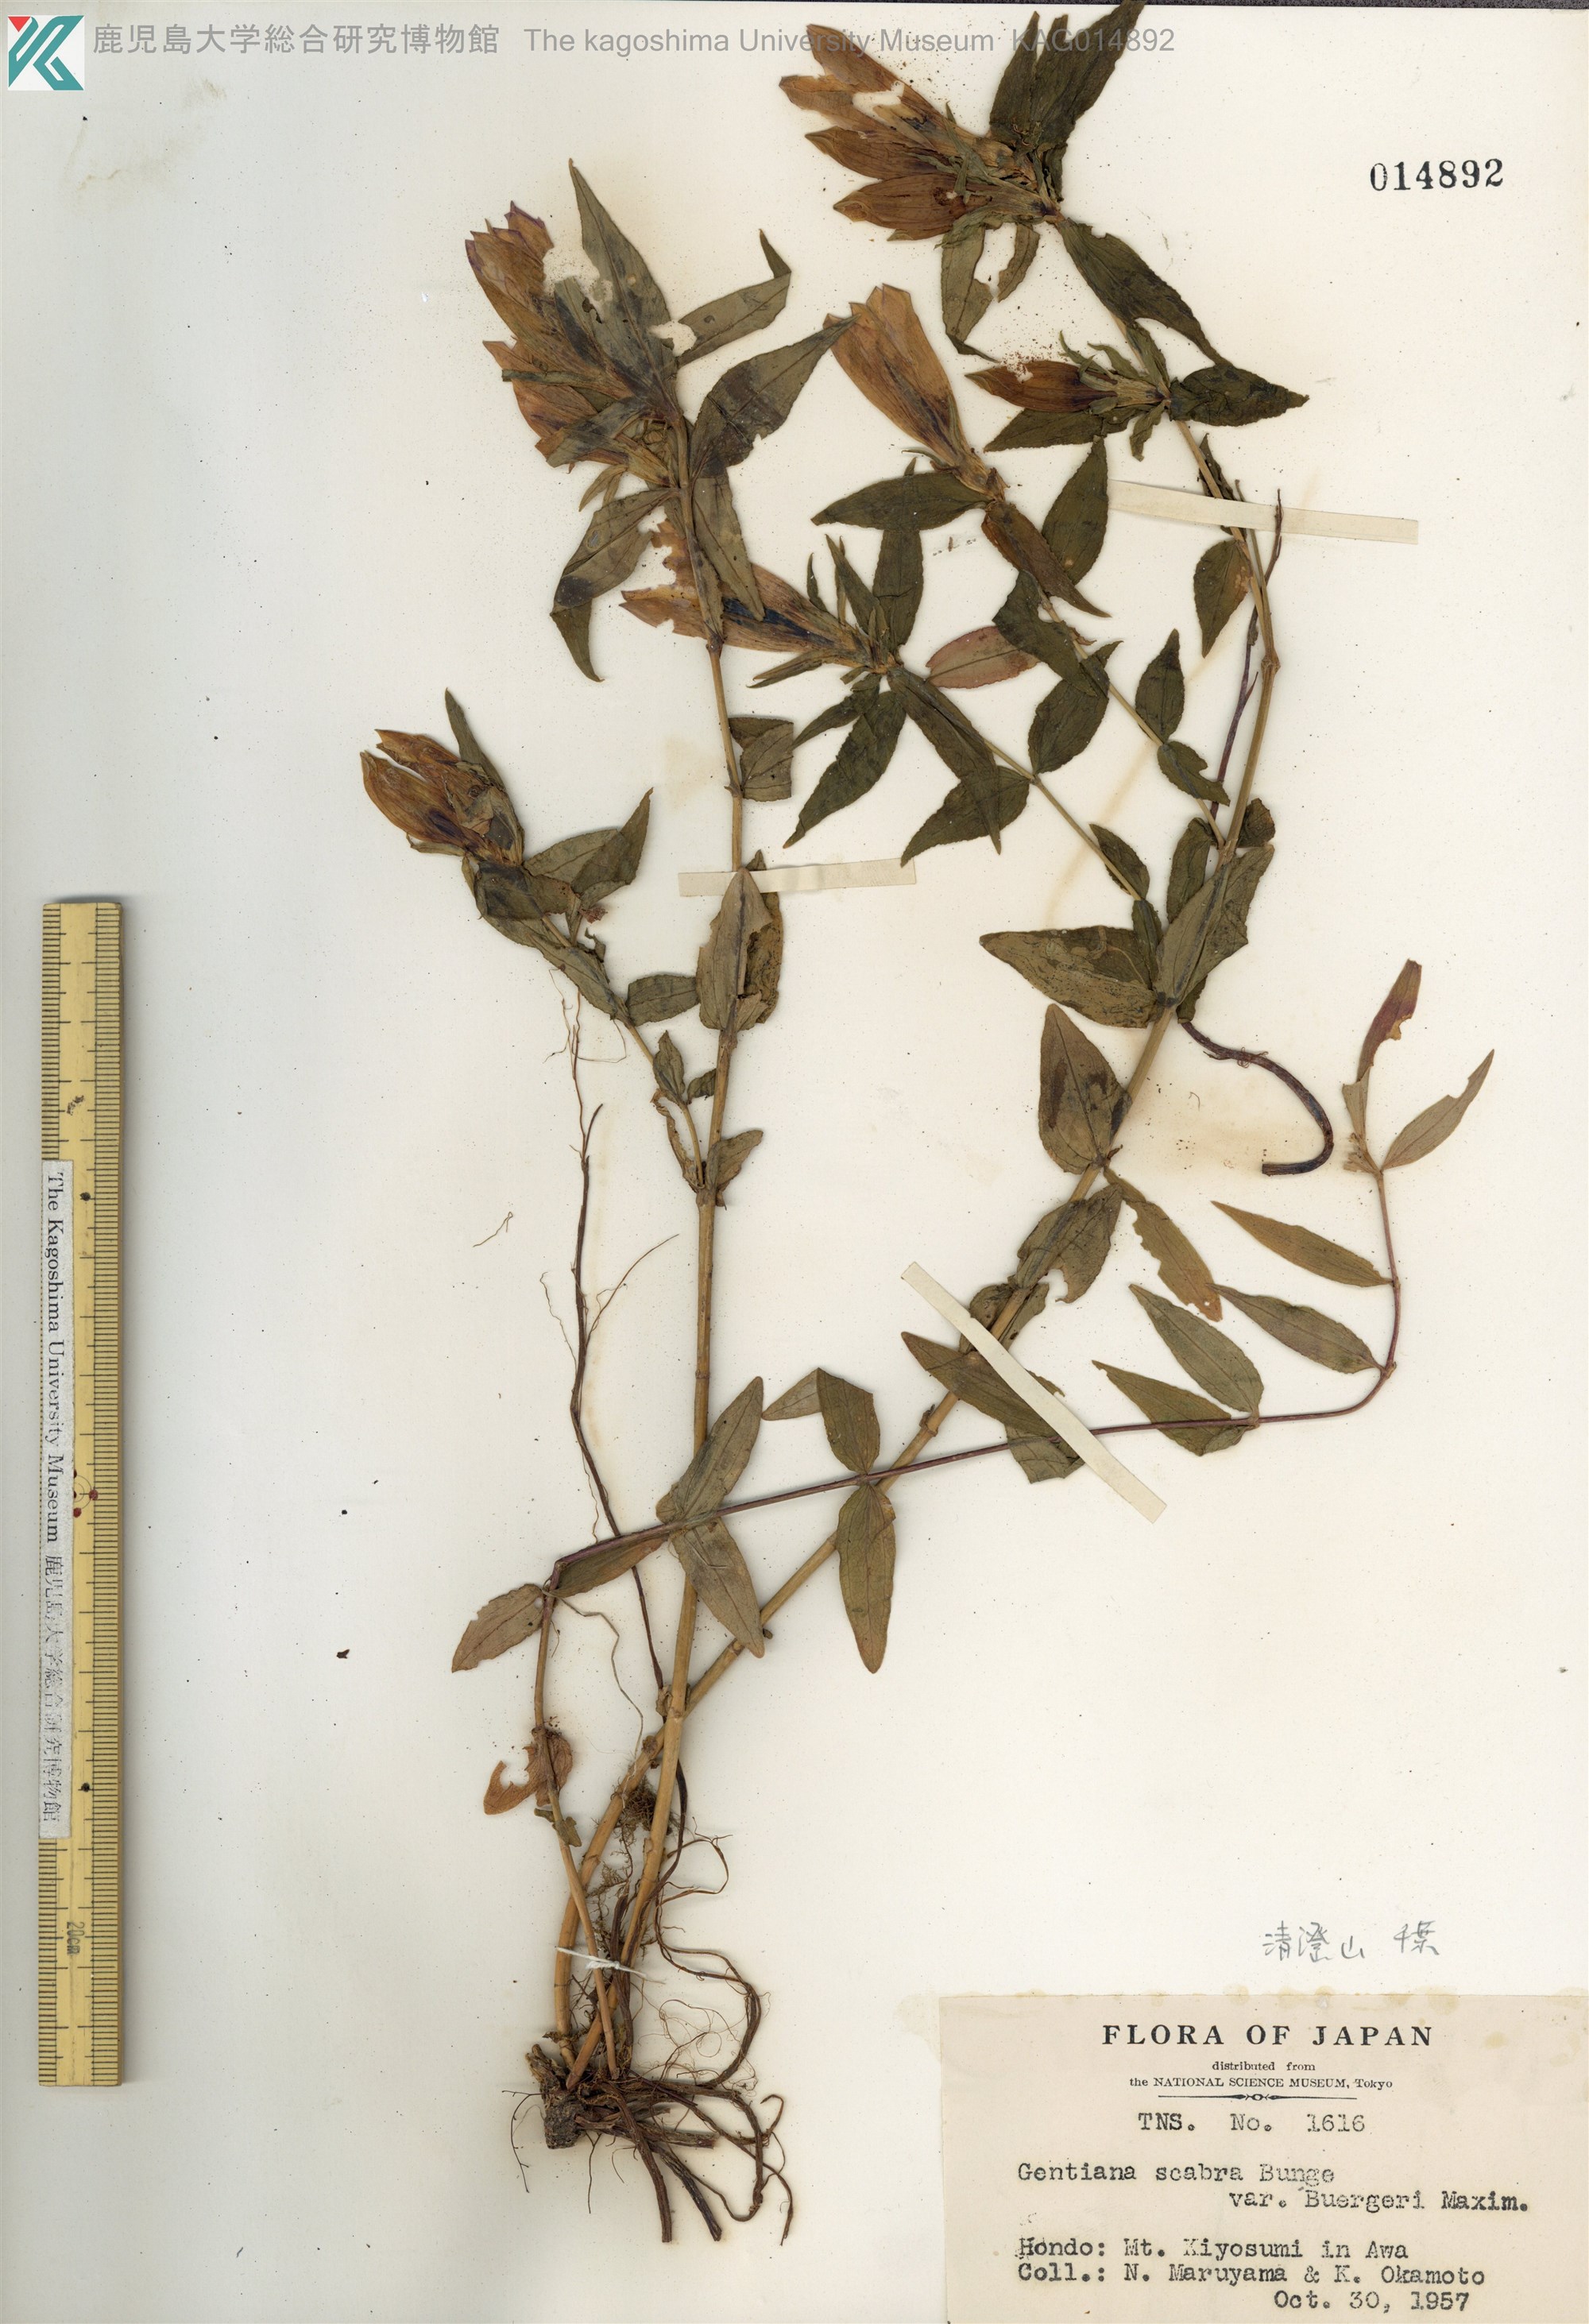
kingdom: Plantae
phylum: Tracheophyta
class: Magnoliopsida
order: Gentianales
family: Gentianaceae
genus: Gentiana
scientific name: Gentiana scabra
